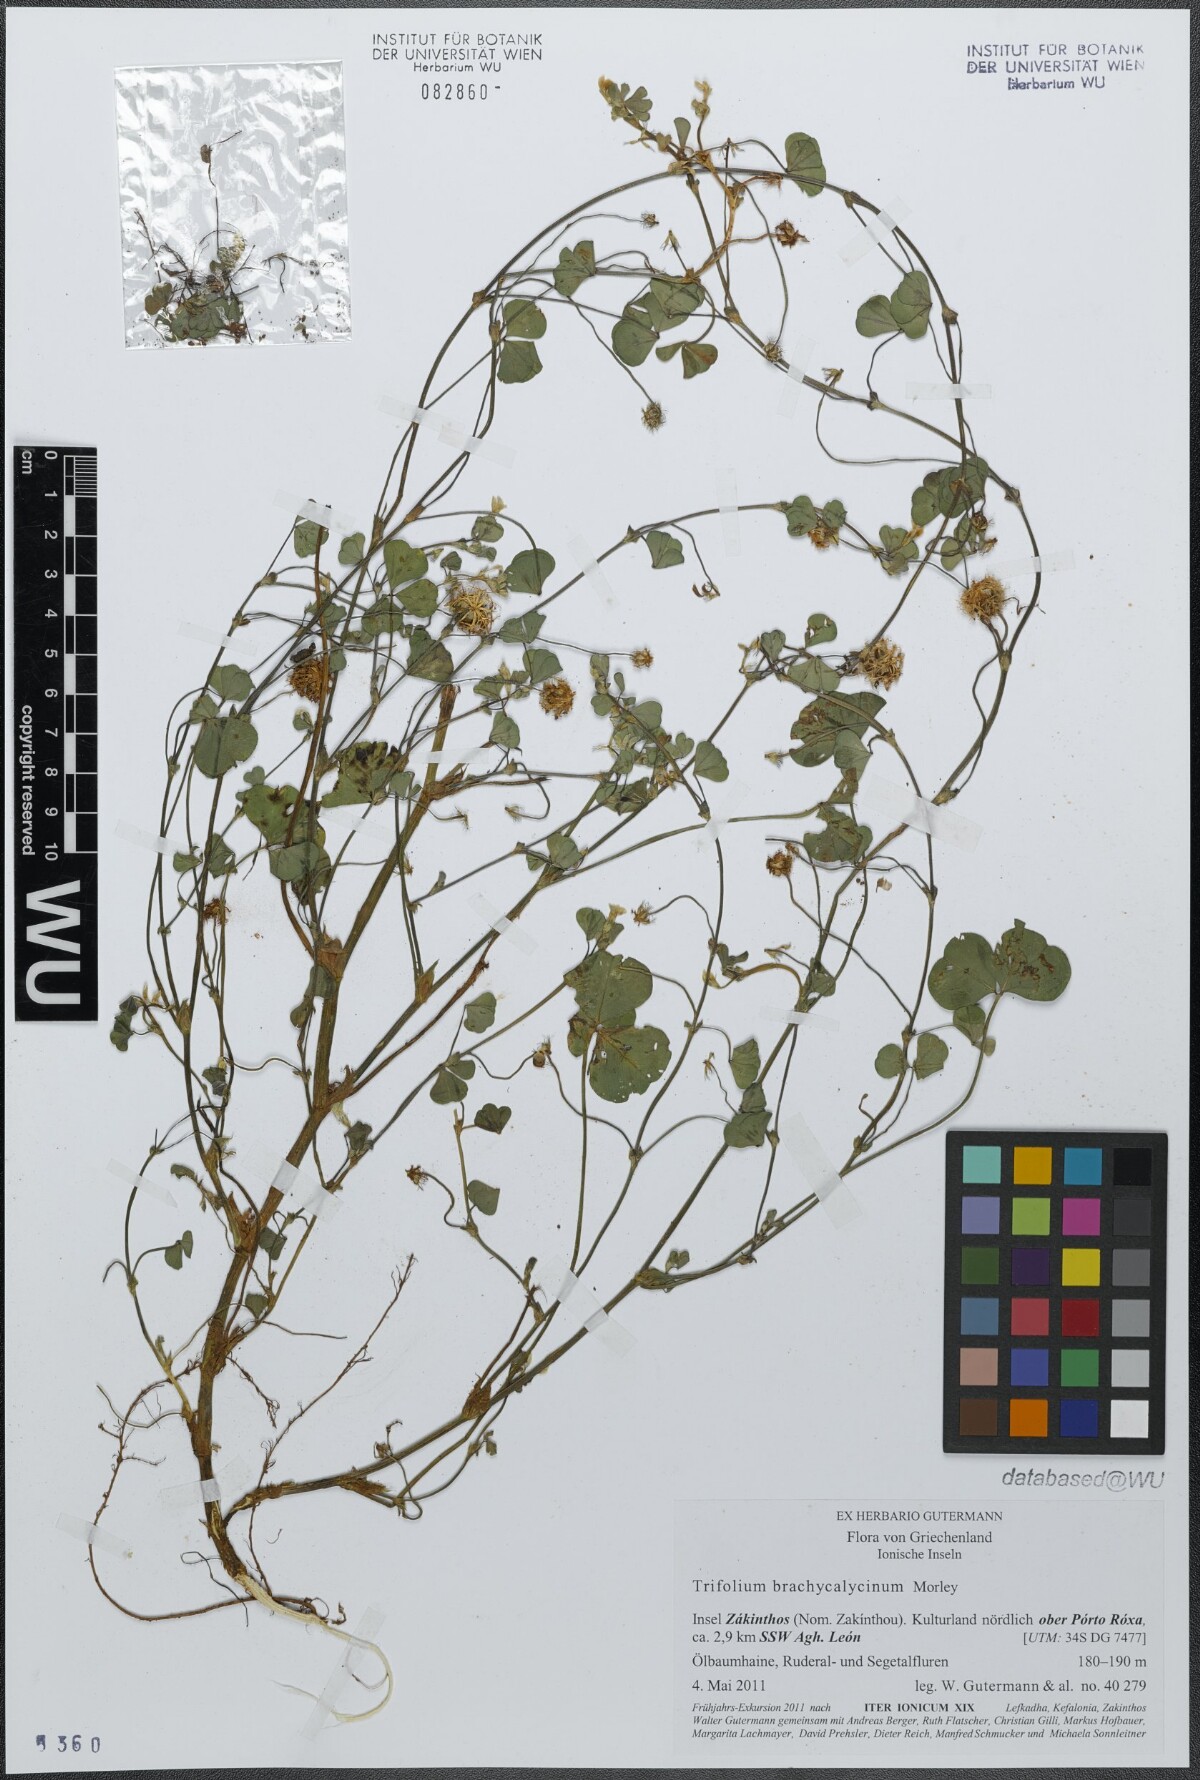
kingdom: Plantae
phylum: Tracheophyta
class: Magnoliopsida
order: Fabales
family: Fabaceae
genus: Trifolium
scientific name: Trifolium subterraneum
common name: Subterranean clover
